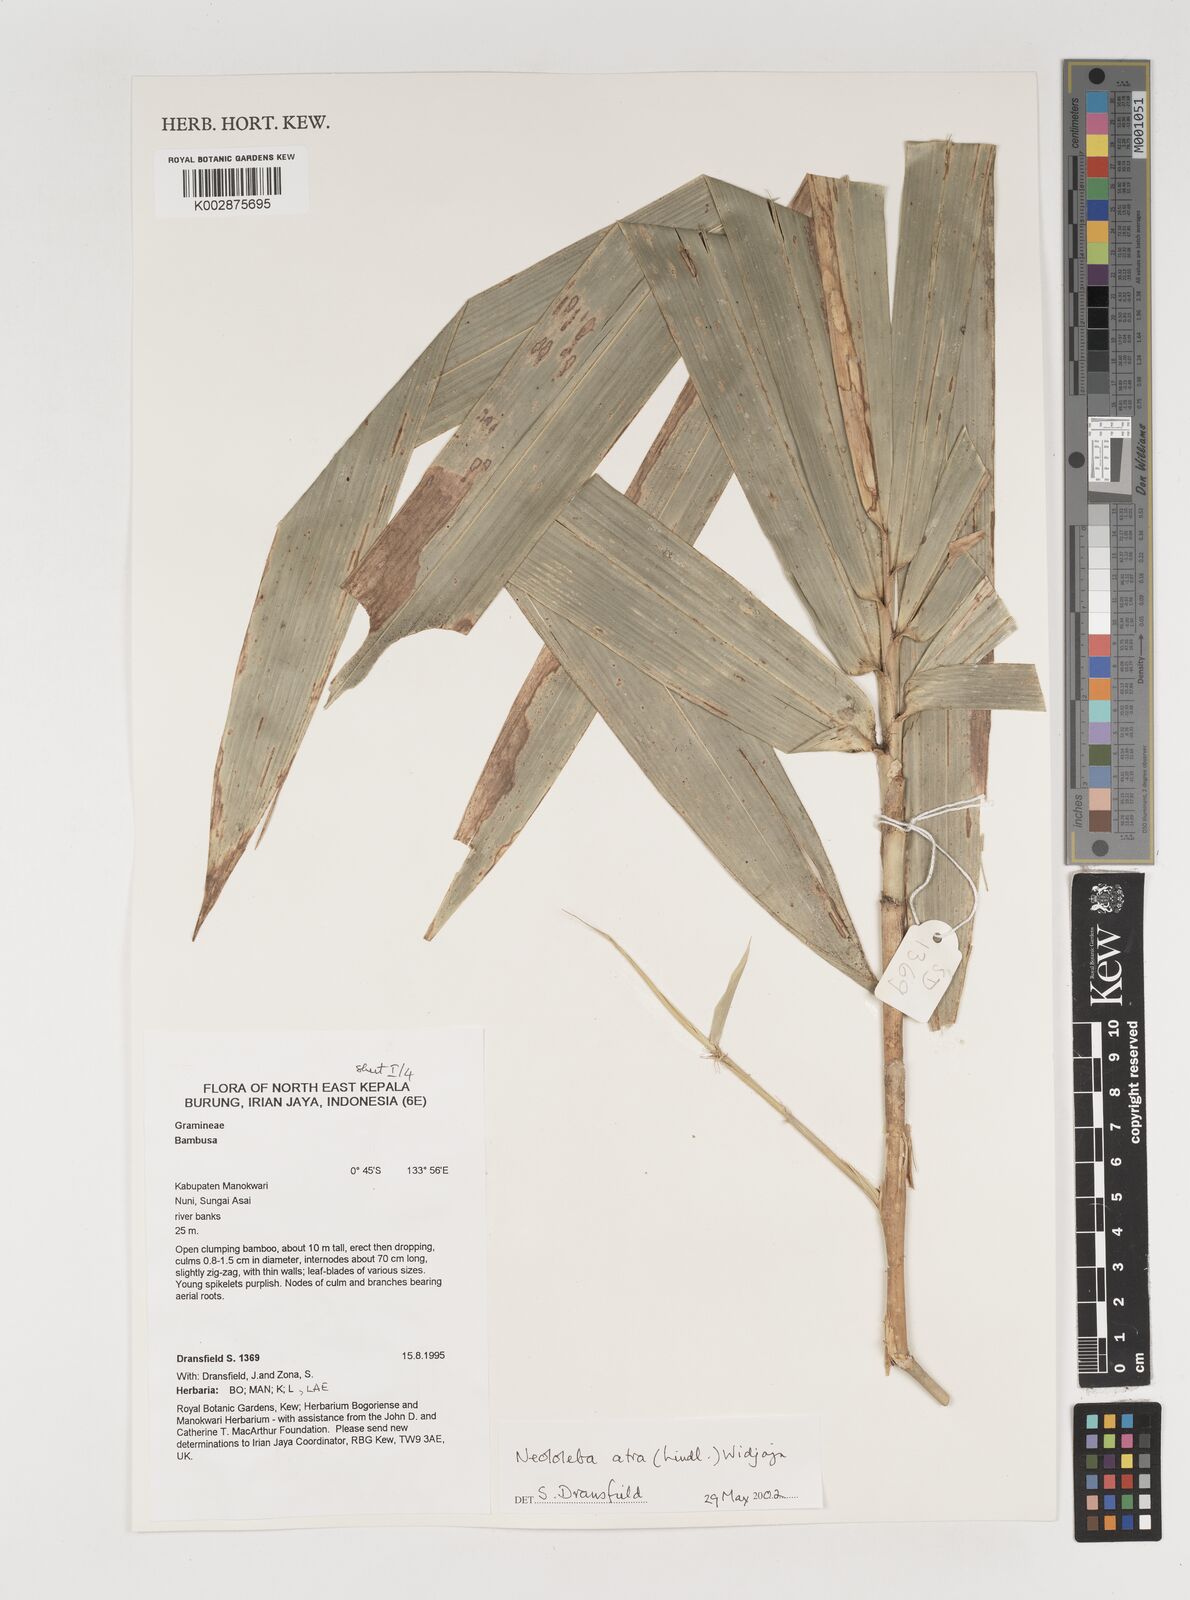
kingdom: Plantae
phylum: Tracheophyta
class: Liliopsida
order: Poales
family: Poaceae
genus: Neololeba
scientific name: Neololeba atra
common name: Cape bamboo
